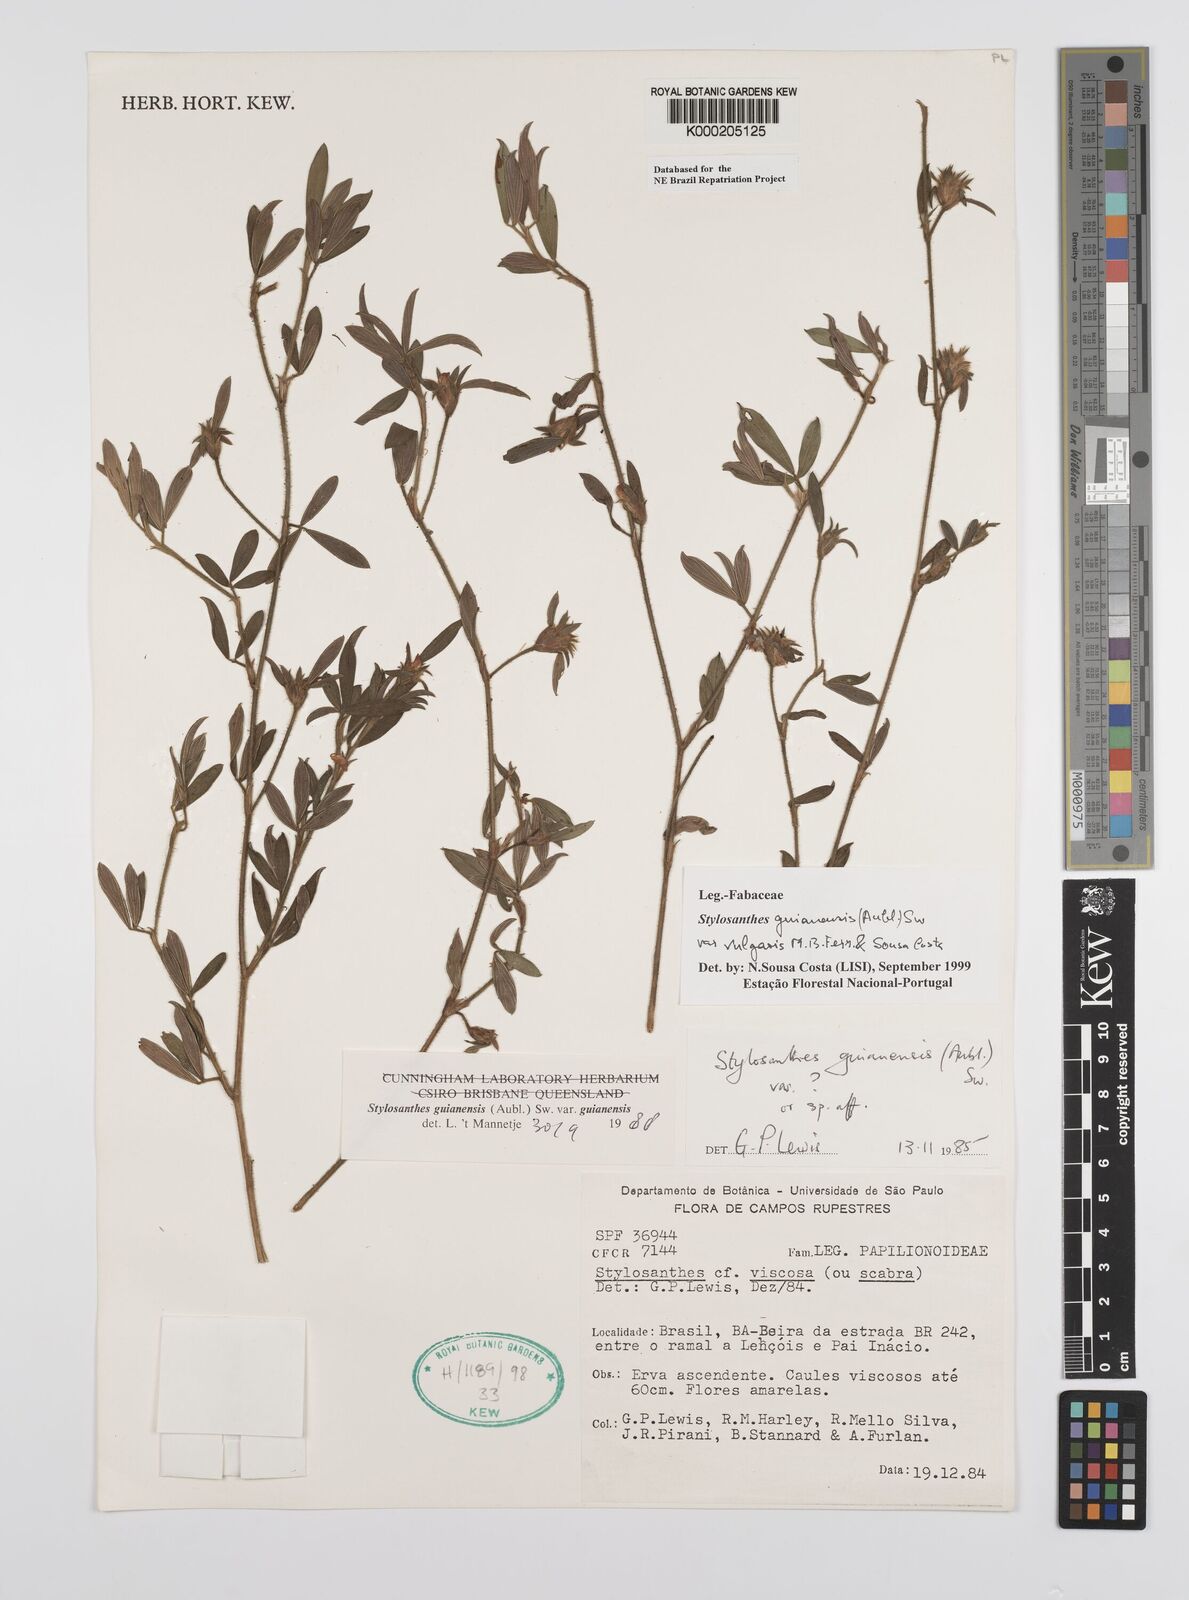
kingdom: Plantae
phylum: Tracheophyta
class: Magnoliopsida
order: Fabales
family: Fabaceae
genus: Stylosanthes
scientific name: Stylosanthes guianensis
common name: Pencil flower
